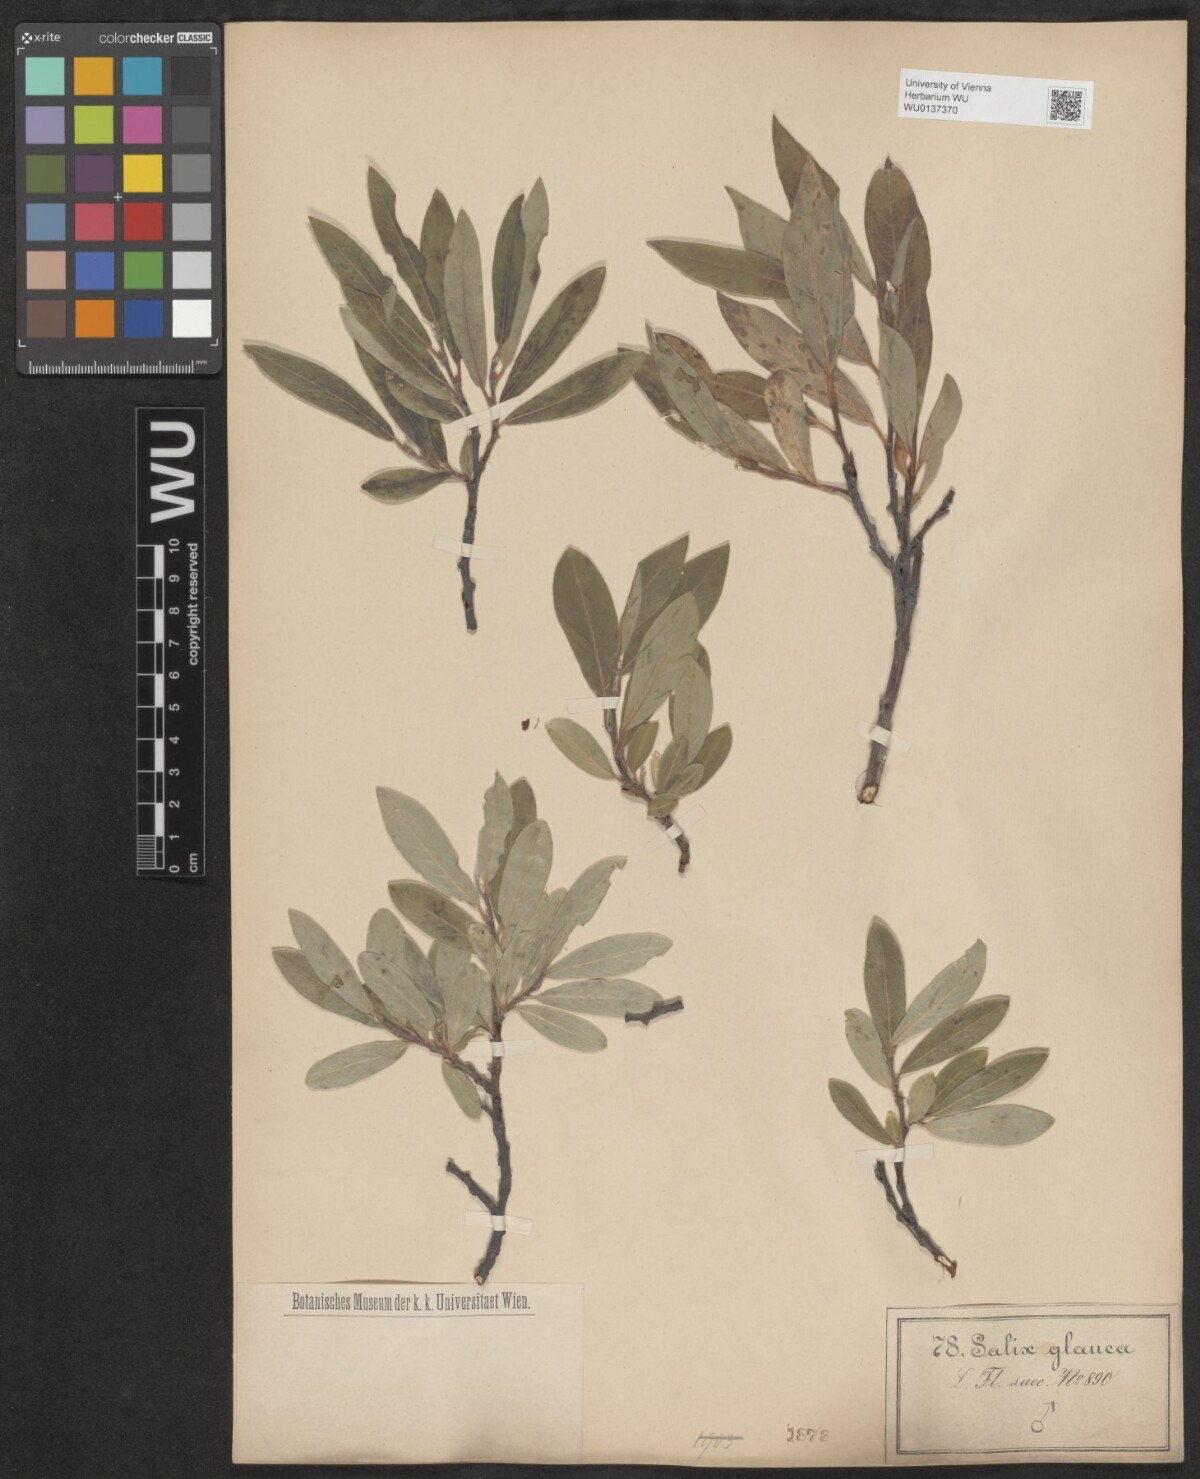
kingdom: Plantae
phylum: Tracheophyta
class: Magnoliopsida
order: Malpighiales
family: Salicaceae
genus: Salix
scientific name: Salix glauca
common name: Glaucous willow
